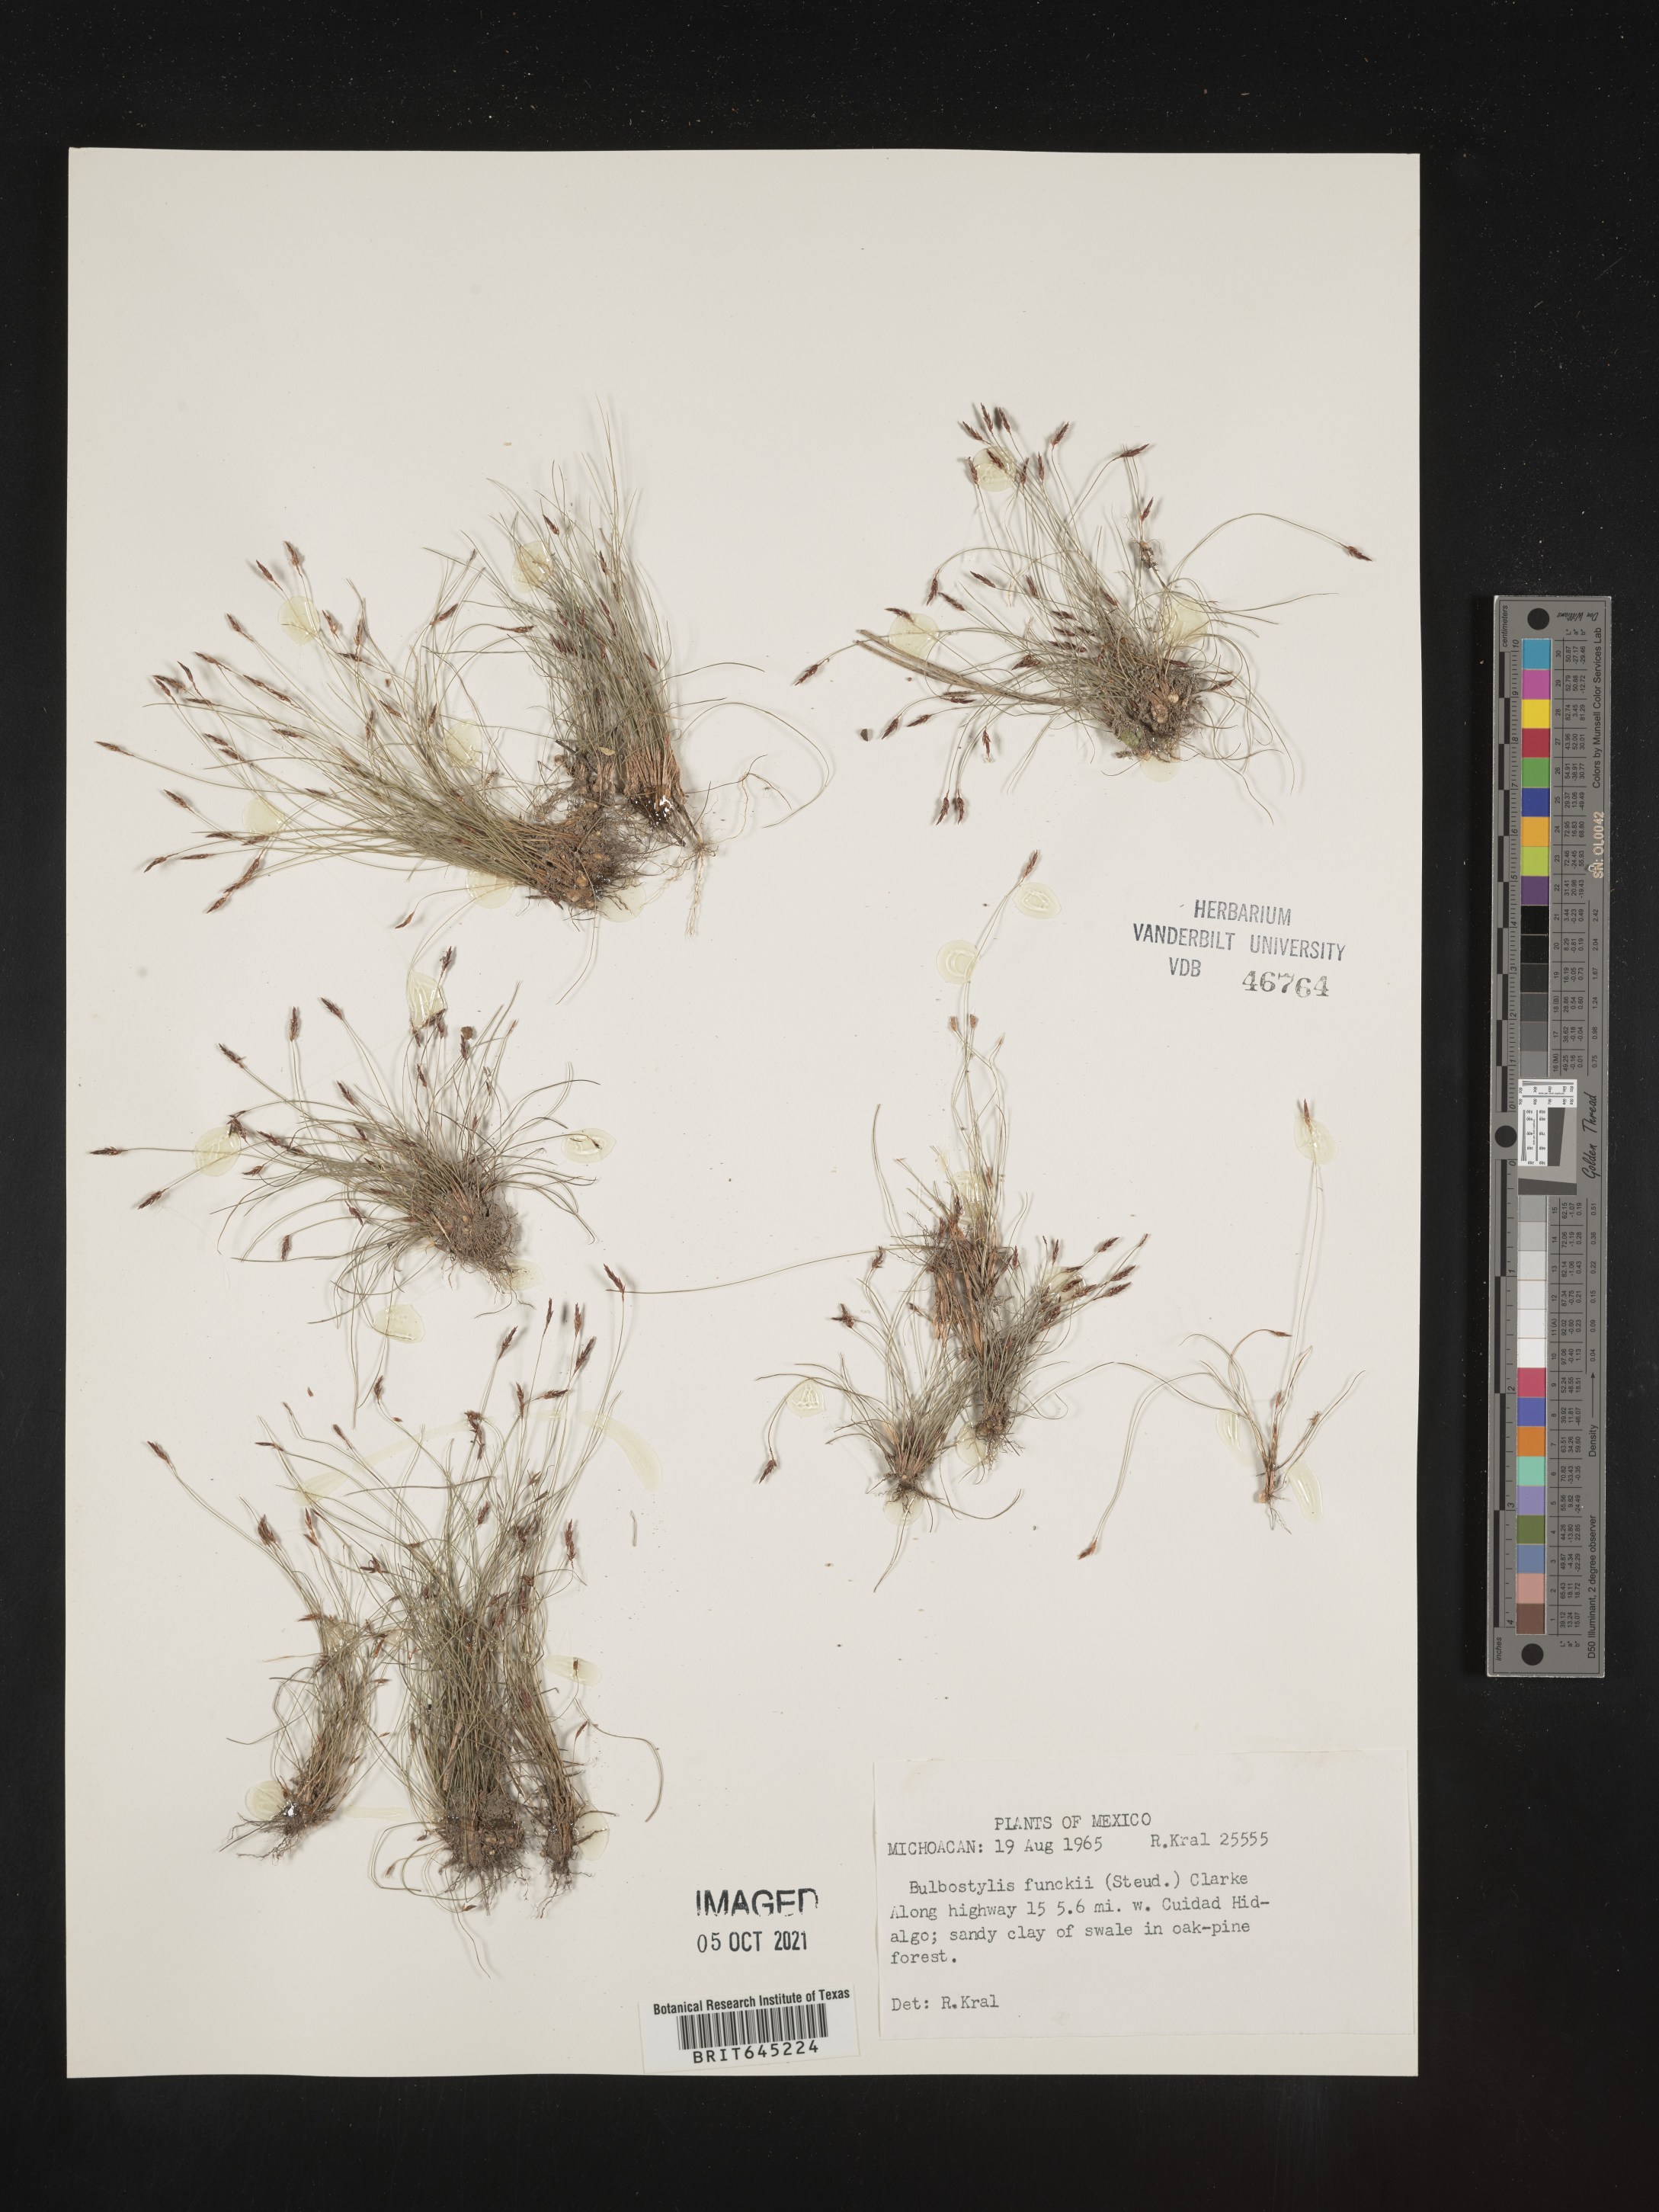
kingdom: Plantae
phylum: Tracheophyta
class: Liliopsida
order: Poales
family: Cyperaceae
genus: Bulbostylis
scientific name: Bulbostylis funckii
